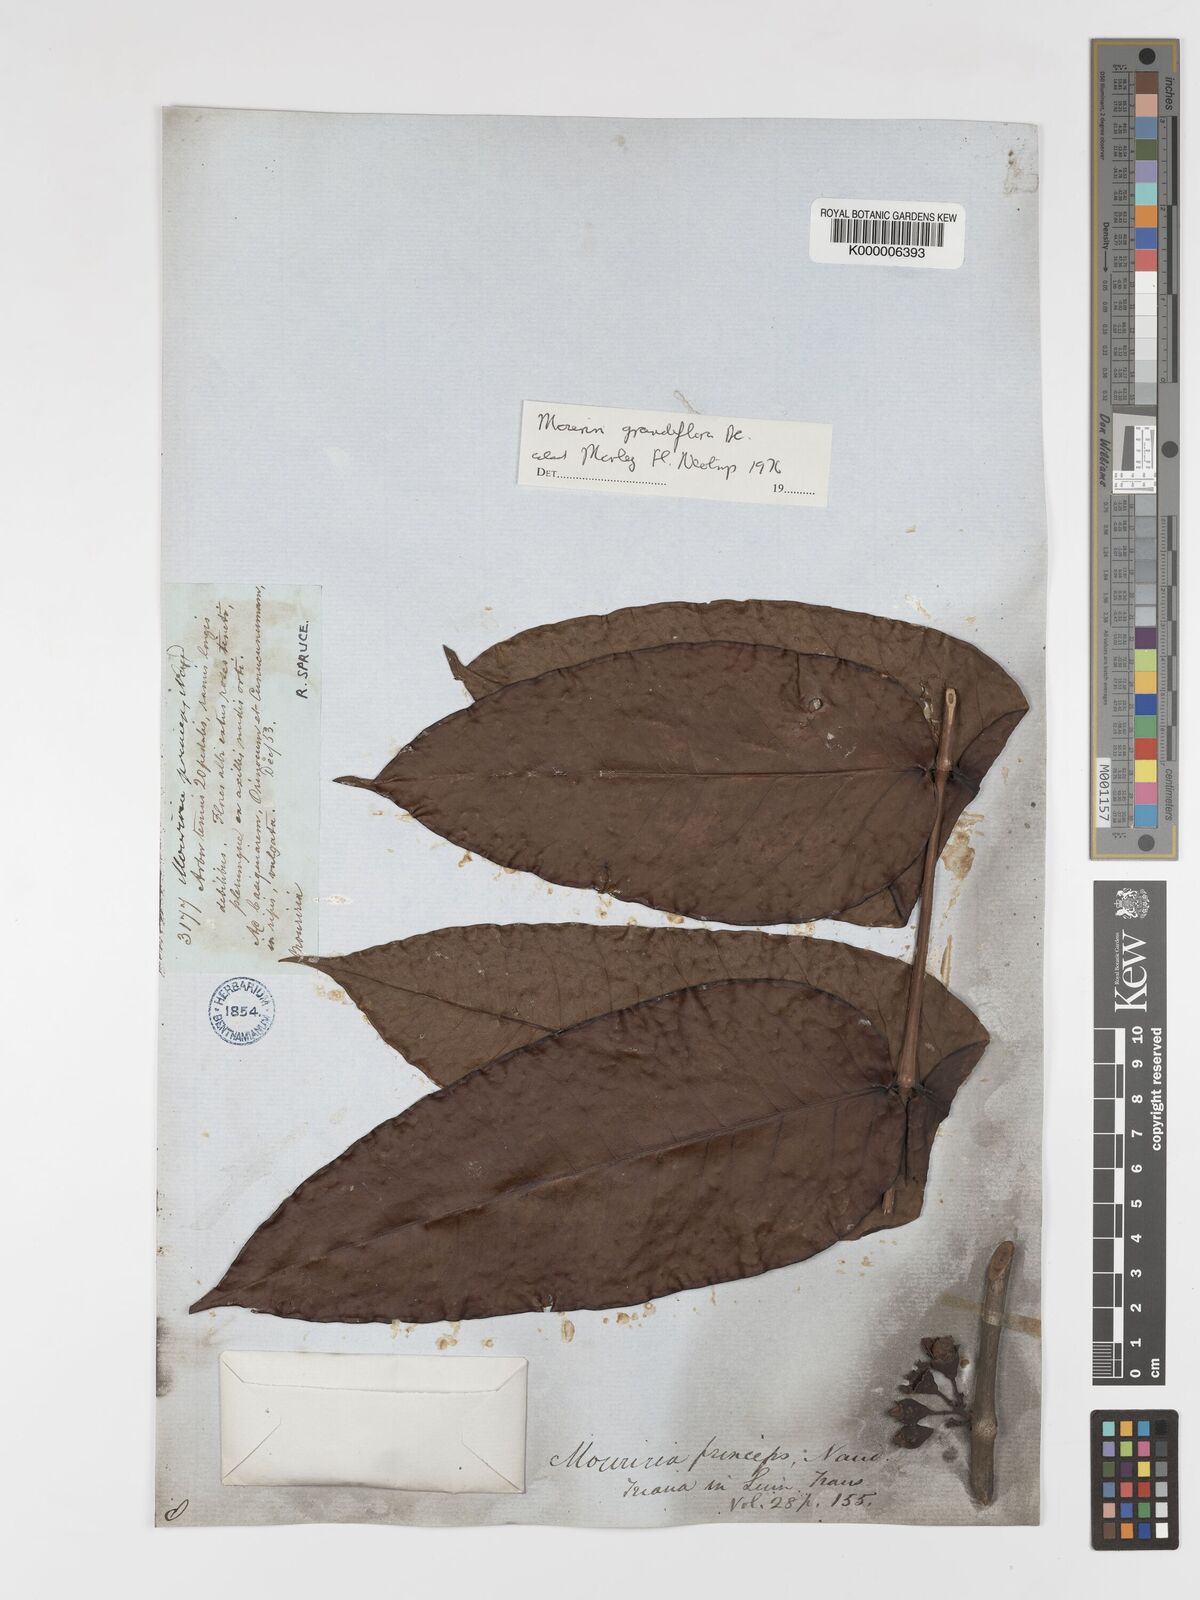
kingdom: Plantae
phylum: Tracheophyta
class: Magnoliopsida
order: Myrtales
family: Melastomataceae
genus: Mouriri
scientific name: Mouriri grandiflora
